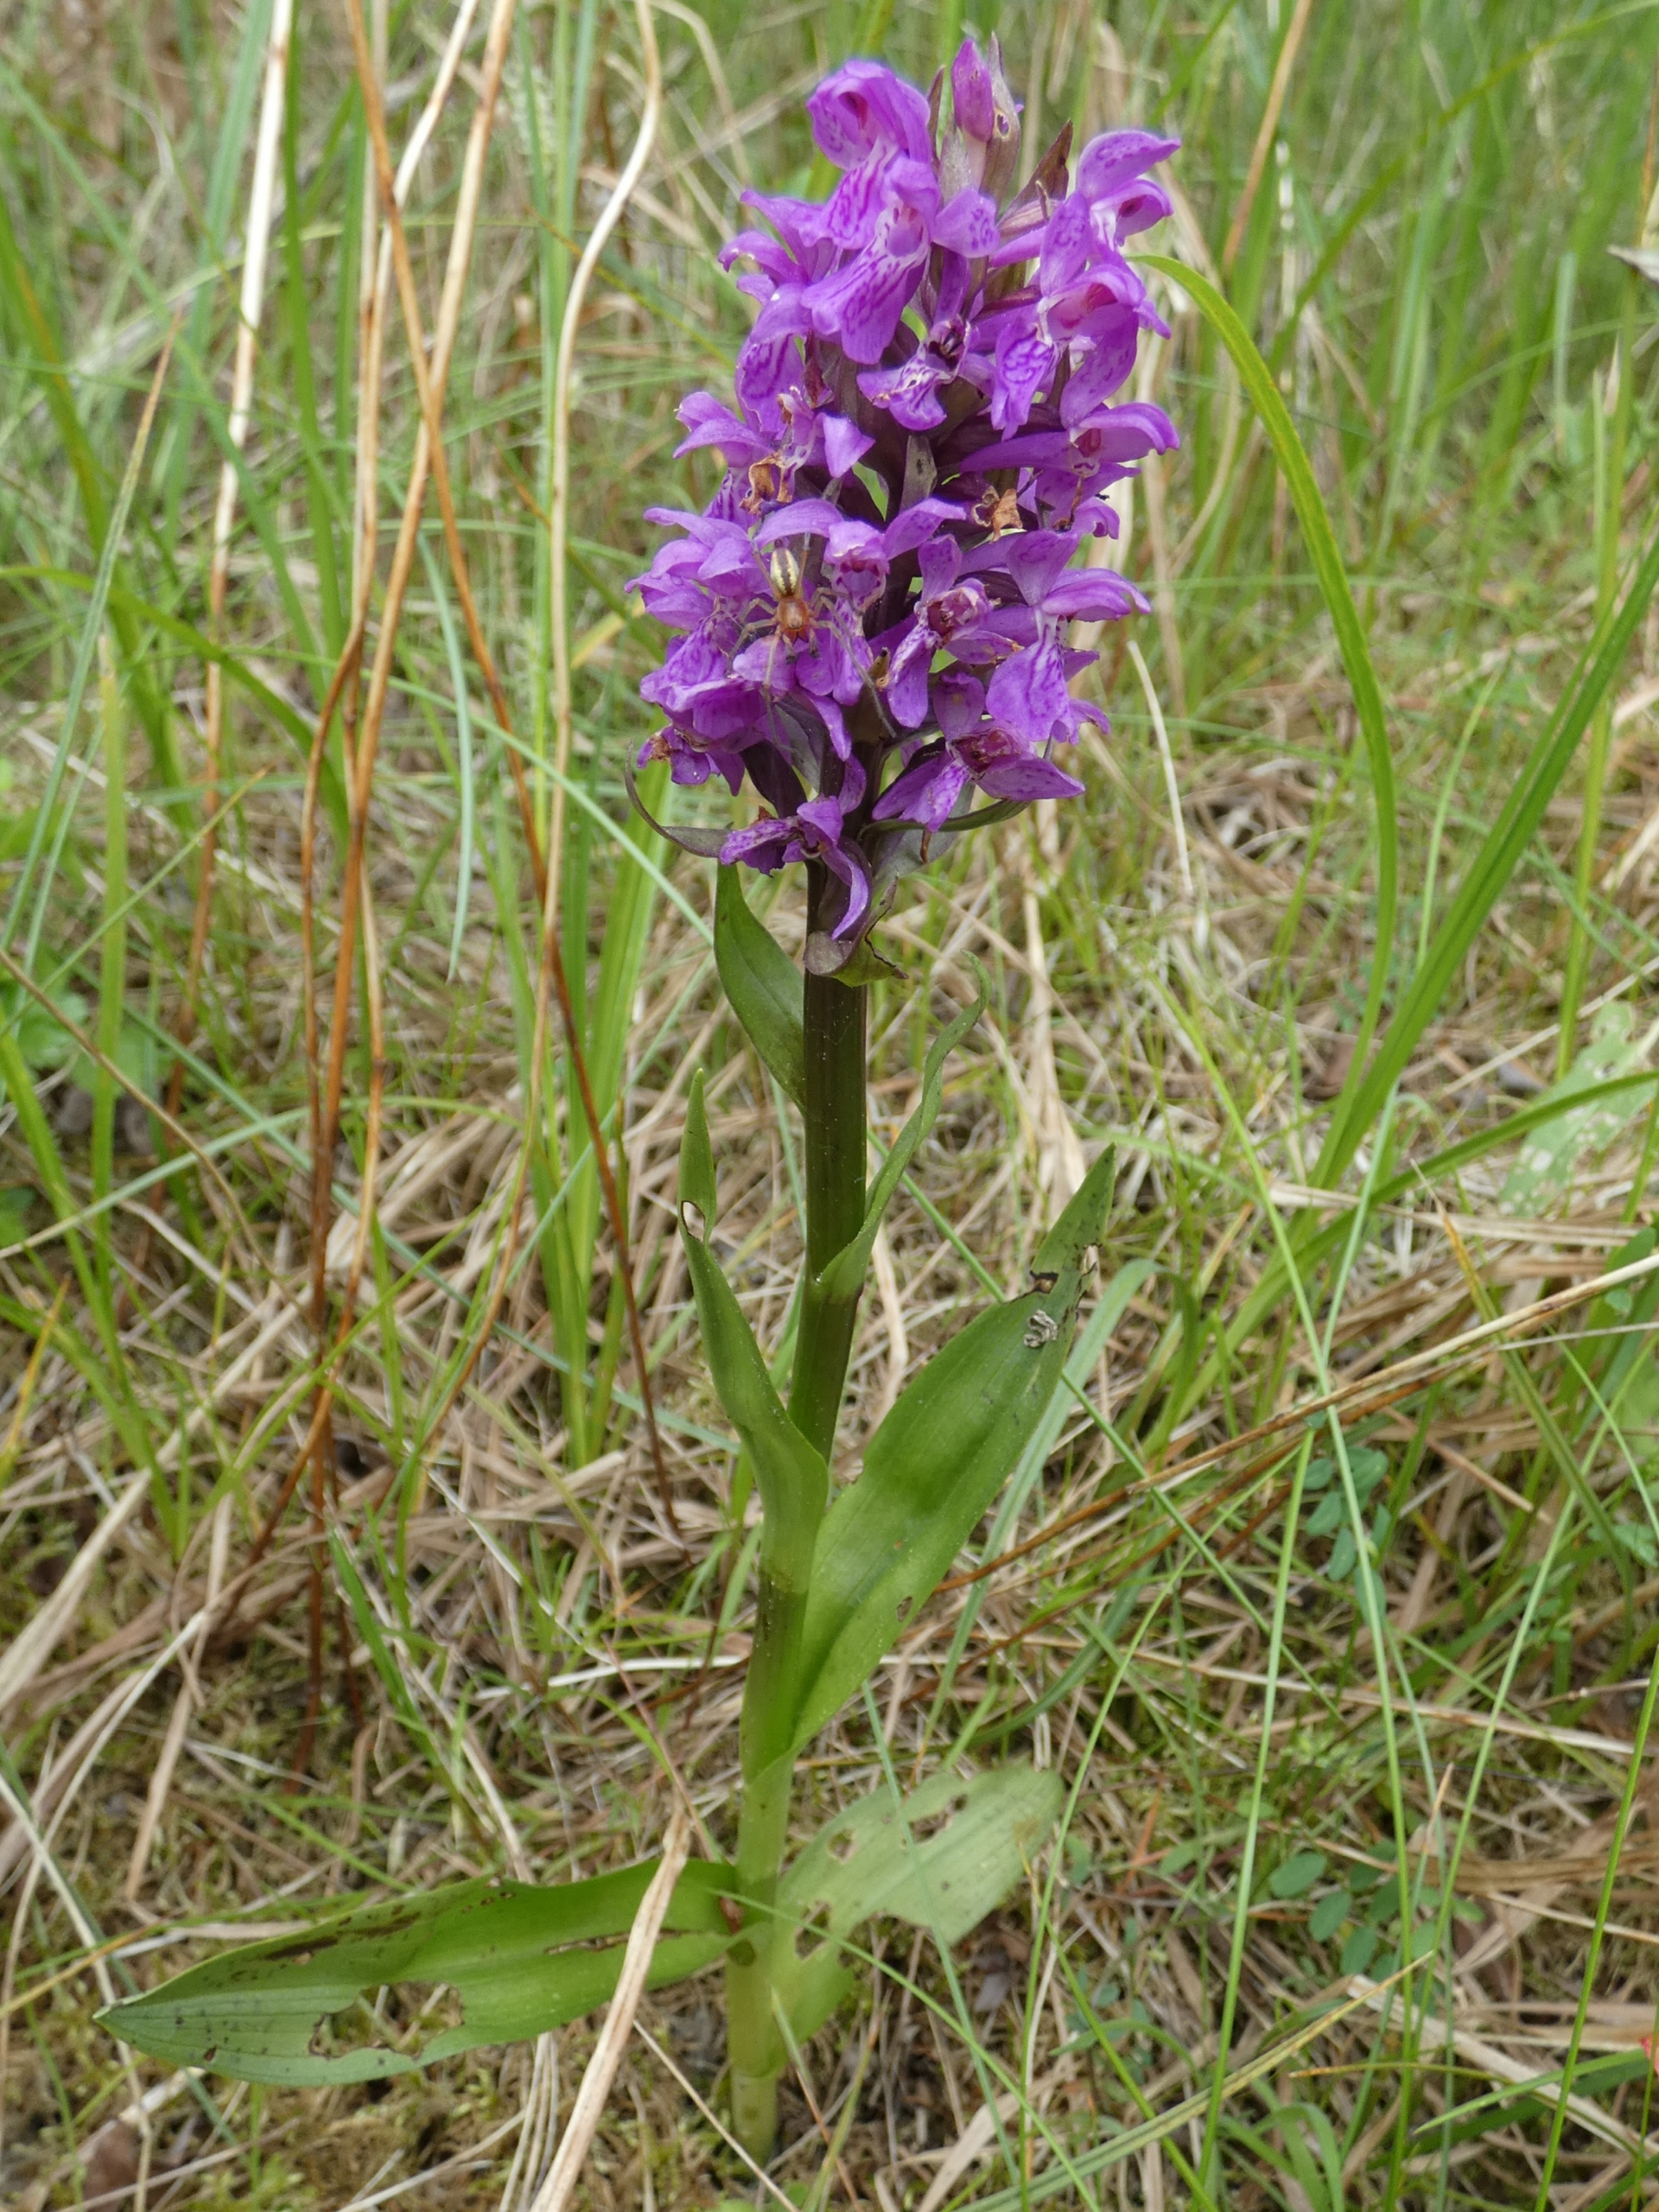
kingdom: Plantae
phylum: Tracheophyta
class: Liliopsida
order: Asparagales
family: Orchidaceae
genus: Dactylorhiza
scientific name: Dactylorhiza majalis
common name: Maj-gøgeurt
